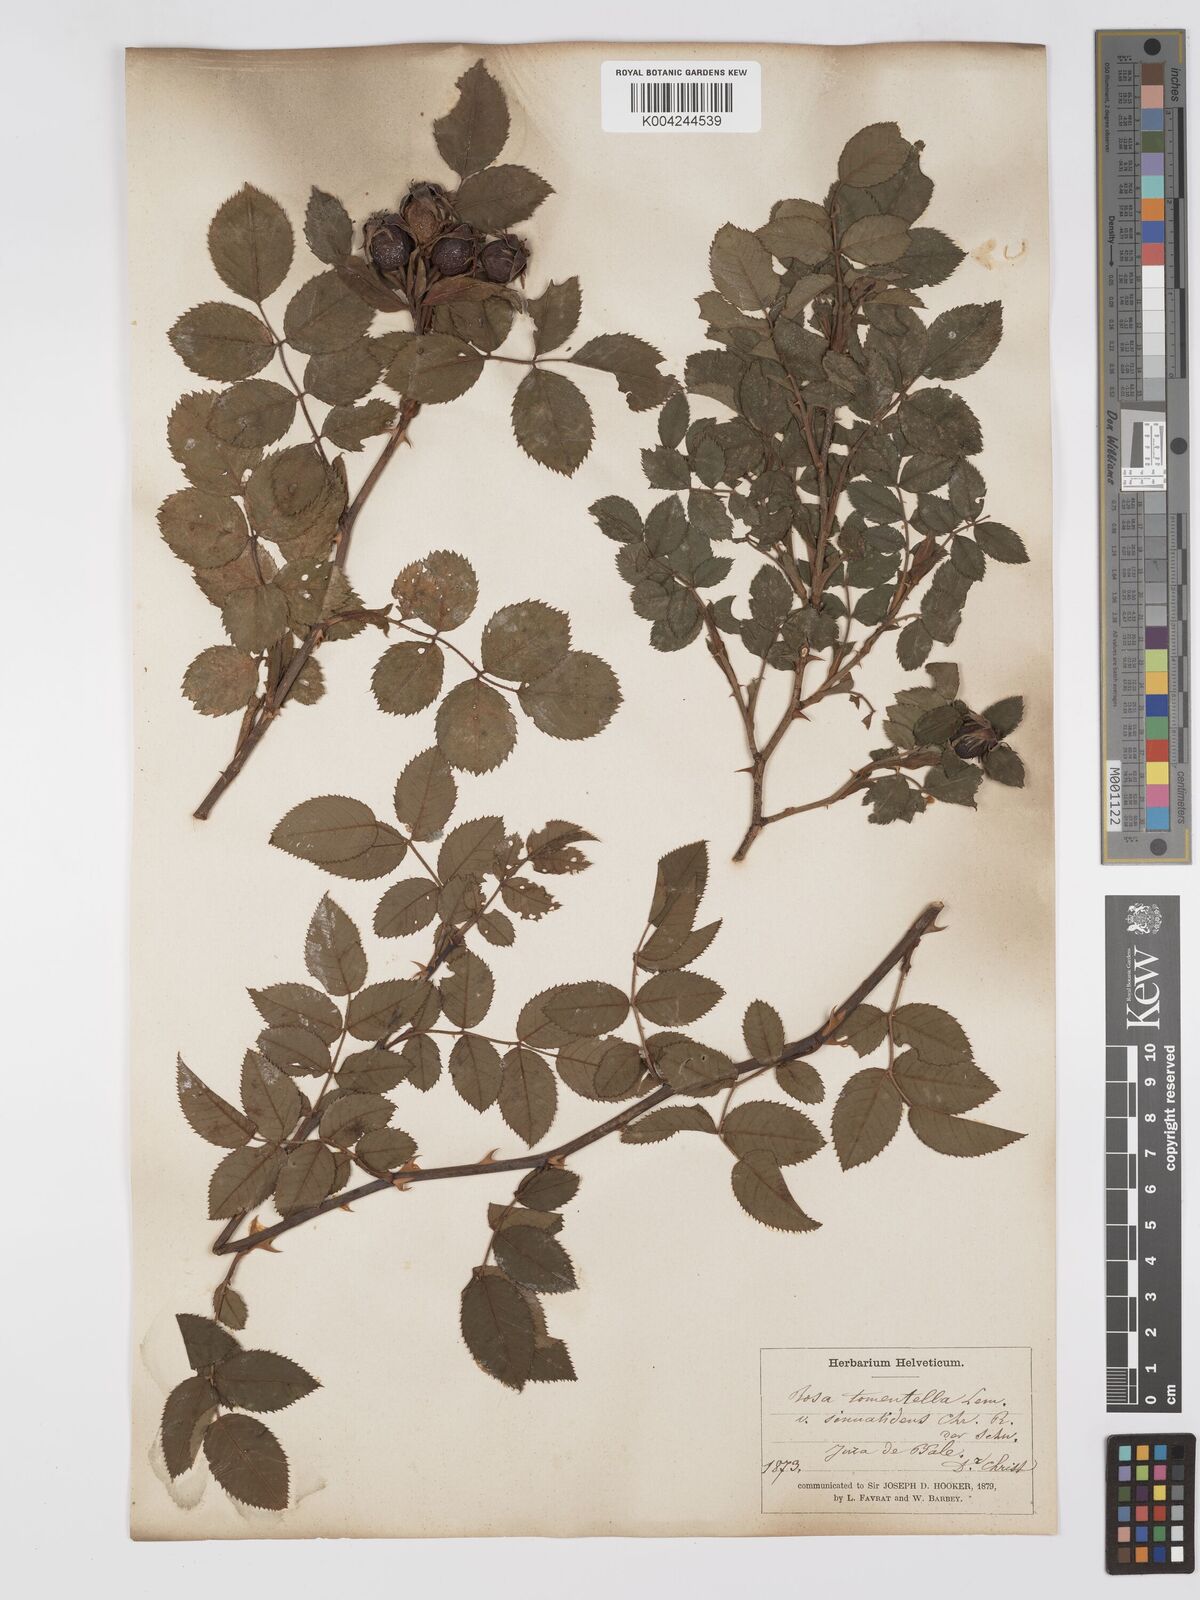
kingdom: Plantae
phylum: Tracheophyta
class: Magnoliopsida
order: Rosales
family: Rosaceae
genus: Rosa
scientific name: Rosa
